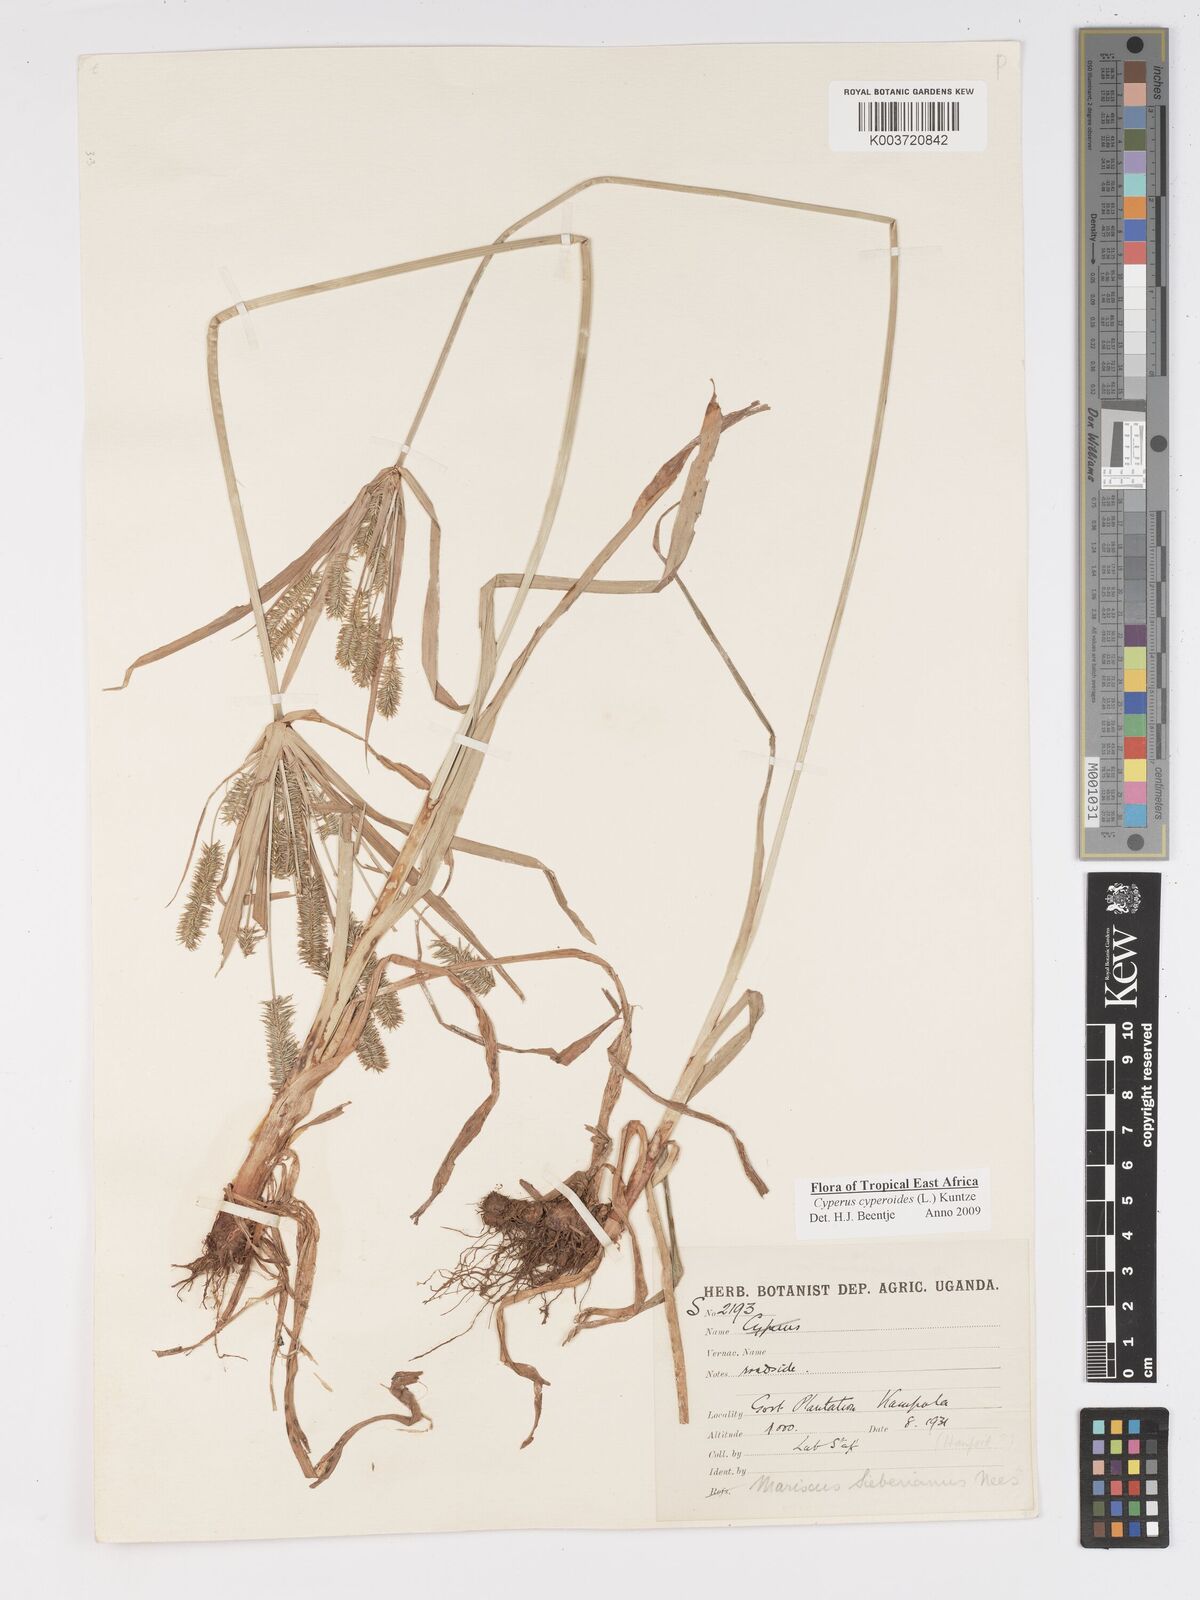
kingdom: Plantae
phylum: Tracheophyta
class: Liliopsida
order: Poales
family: Cyperaceae
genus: Cyperus
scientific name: Cyperus cyperoides
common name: Pacific island flat sedge
